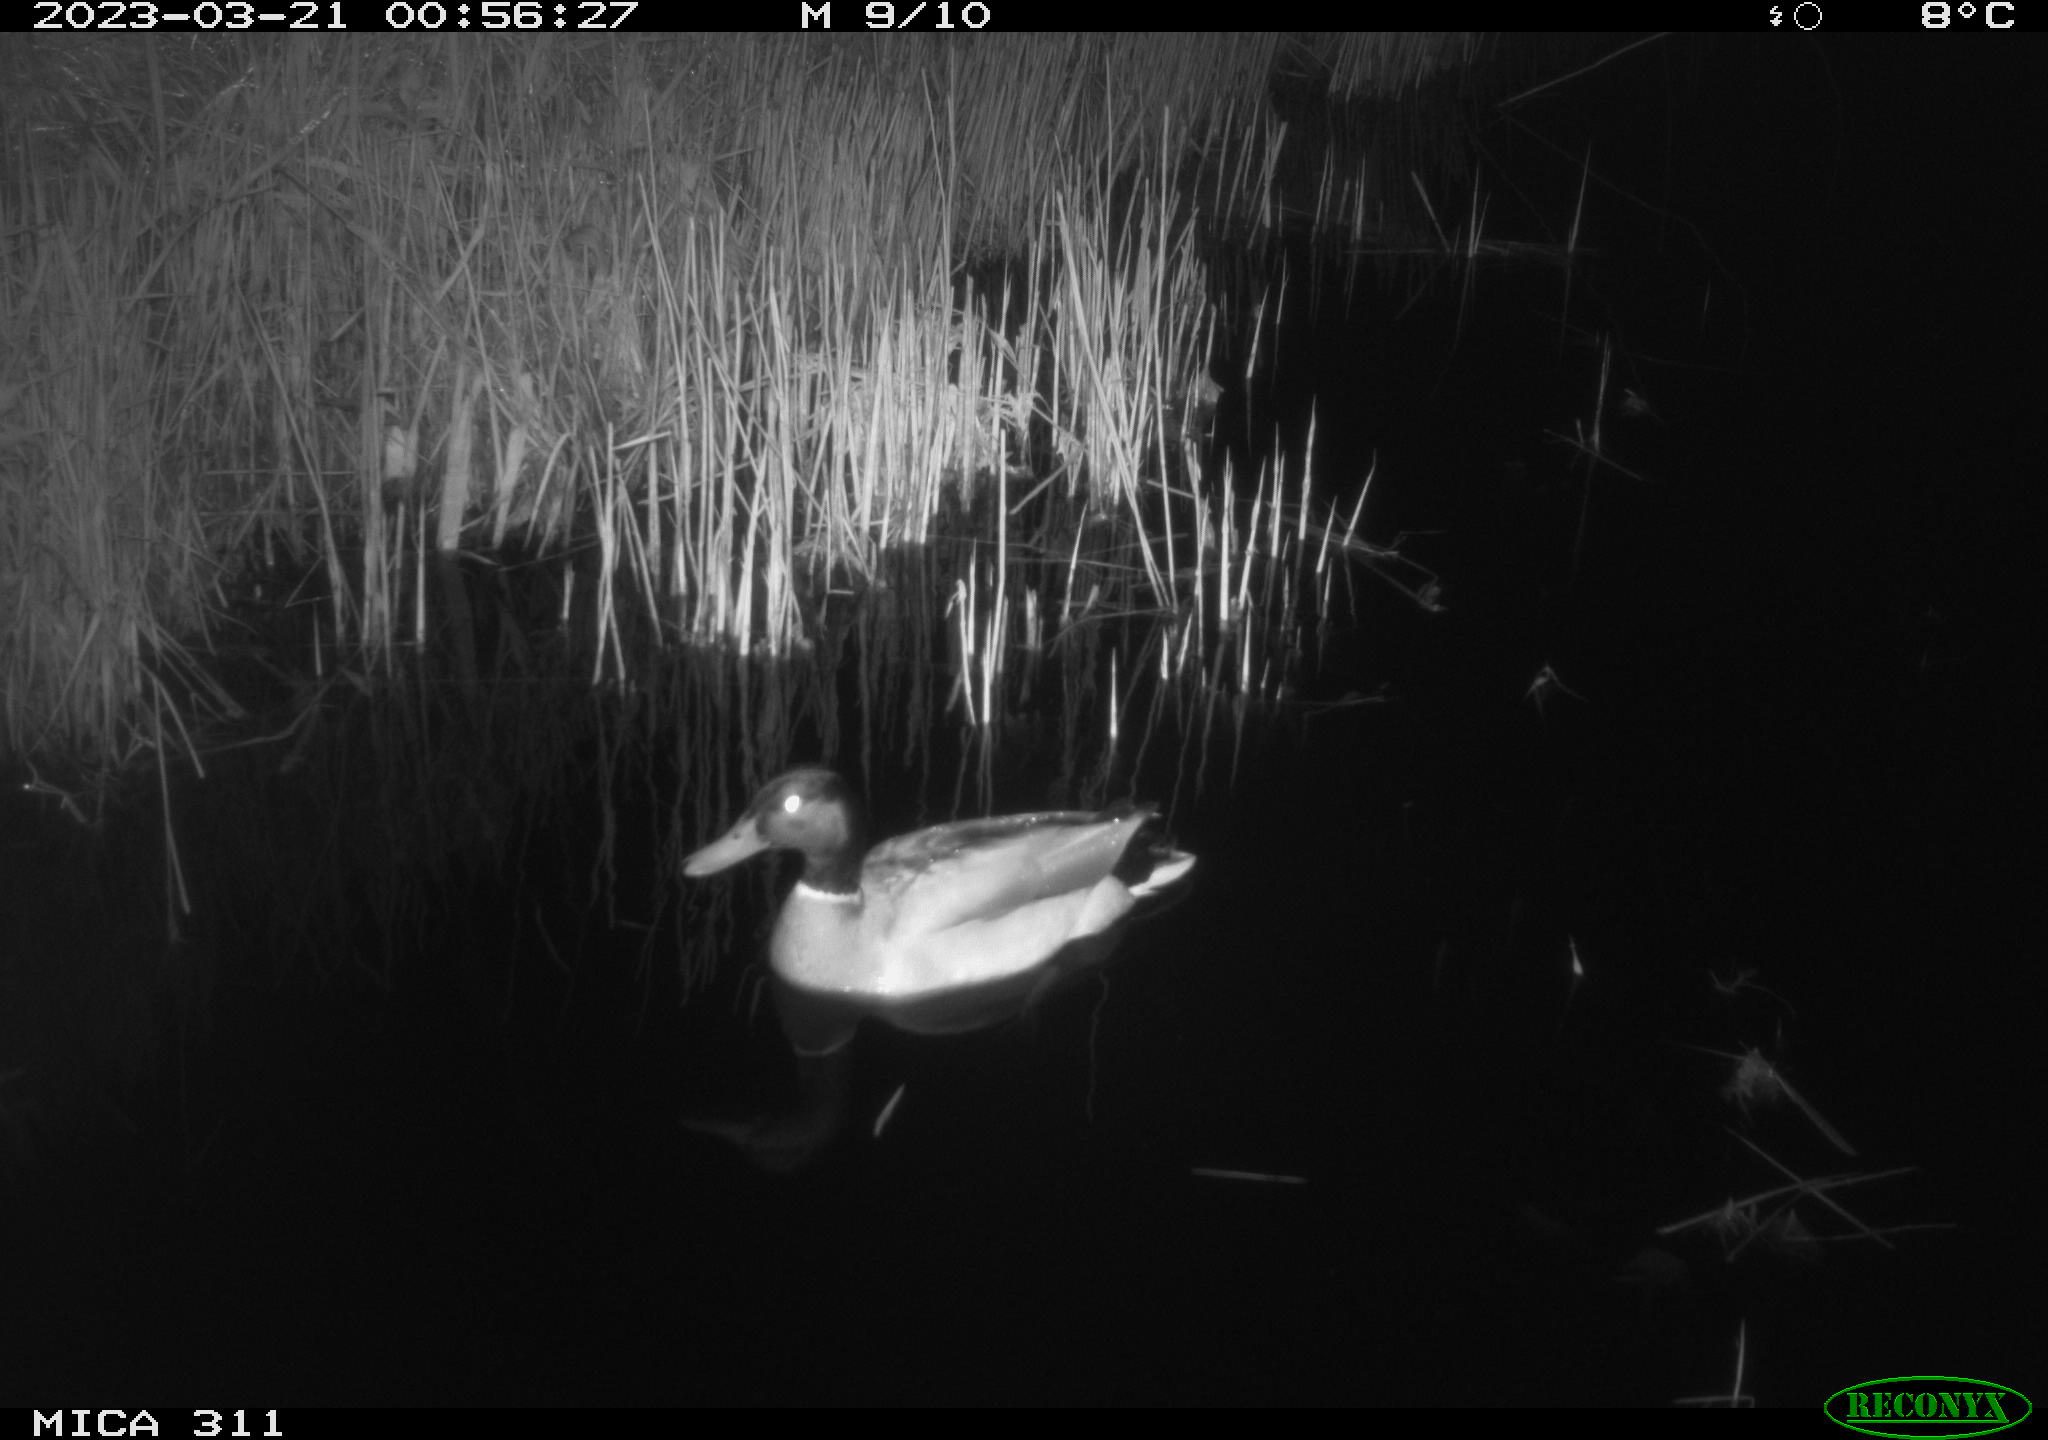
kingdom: Animalia
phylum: Chordata
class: Aves
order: Anseriformes
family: Anatidae
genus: Anas
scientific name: Anas
